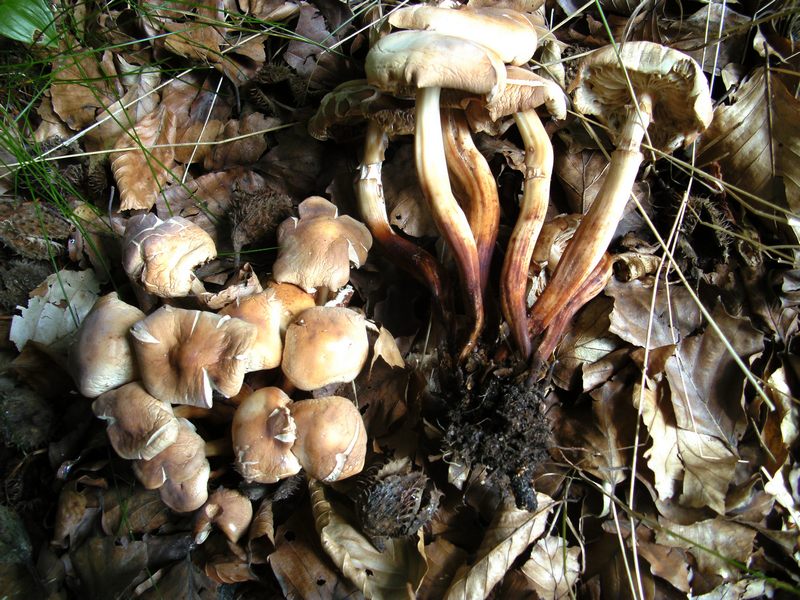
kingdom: Fungi
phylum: Basidiomycota
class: Agaricomycetes
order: Agaricales
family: Omphalotaceae
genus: Gymnopus
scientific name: Gymnopus fusipes
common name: tenstokket fladhat
